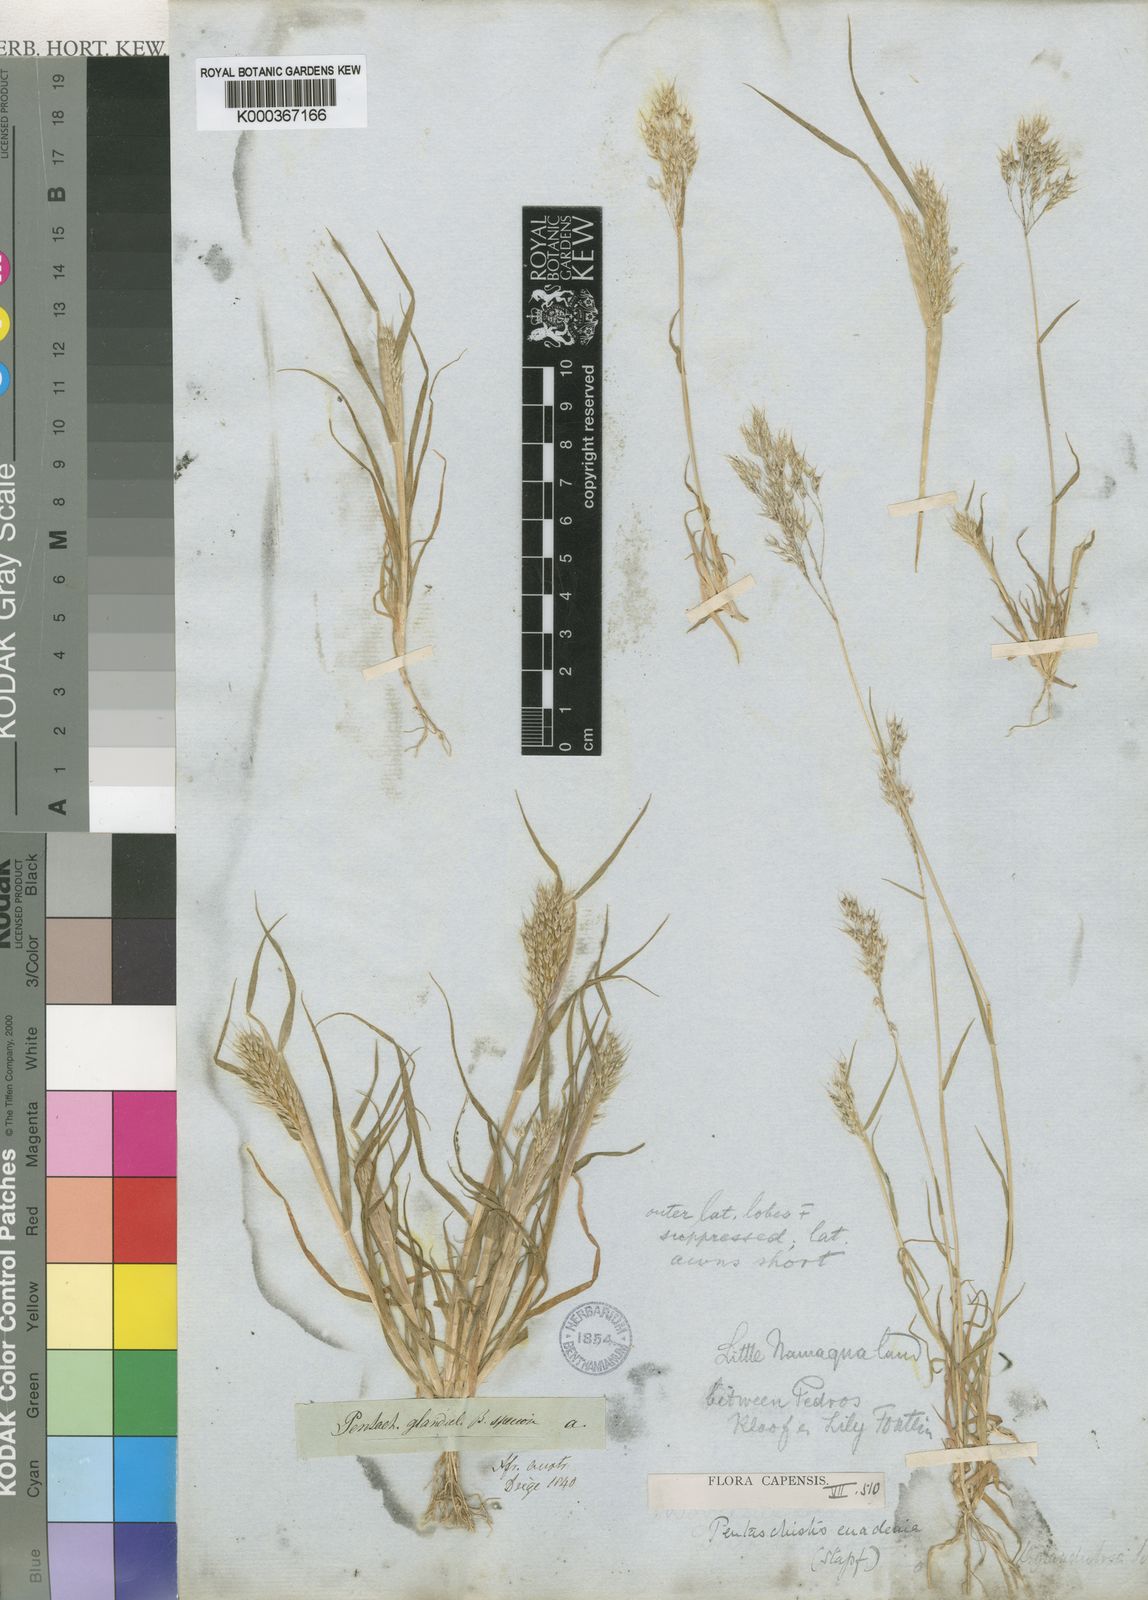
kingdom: Plantae
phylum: Tracheophyta
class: Liliopsida
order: Poales
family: Poaceae
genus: Pentameris
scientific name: Pentameris patula
